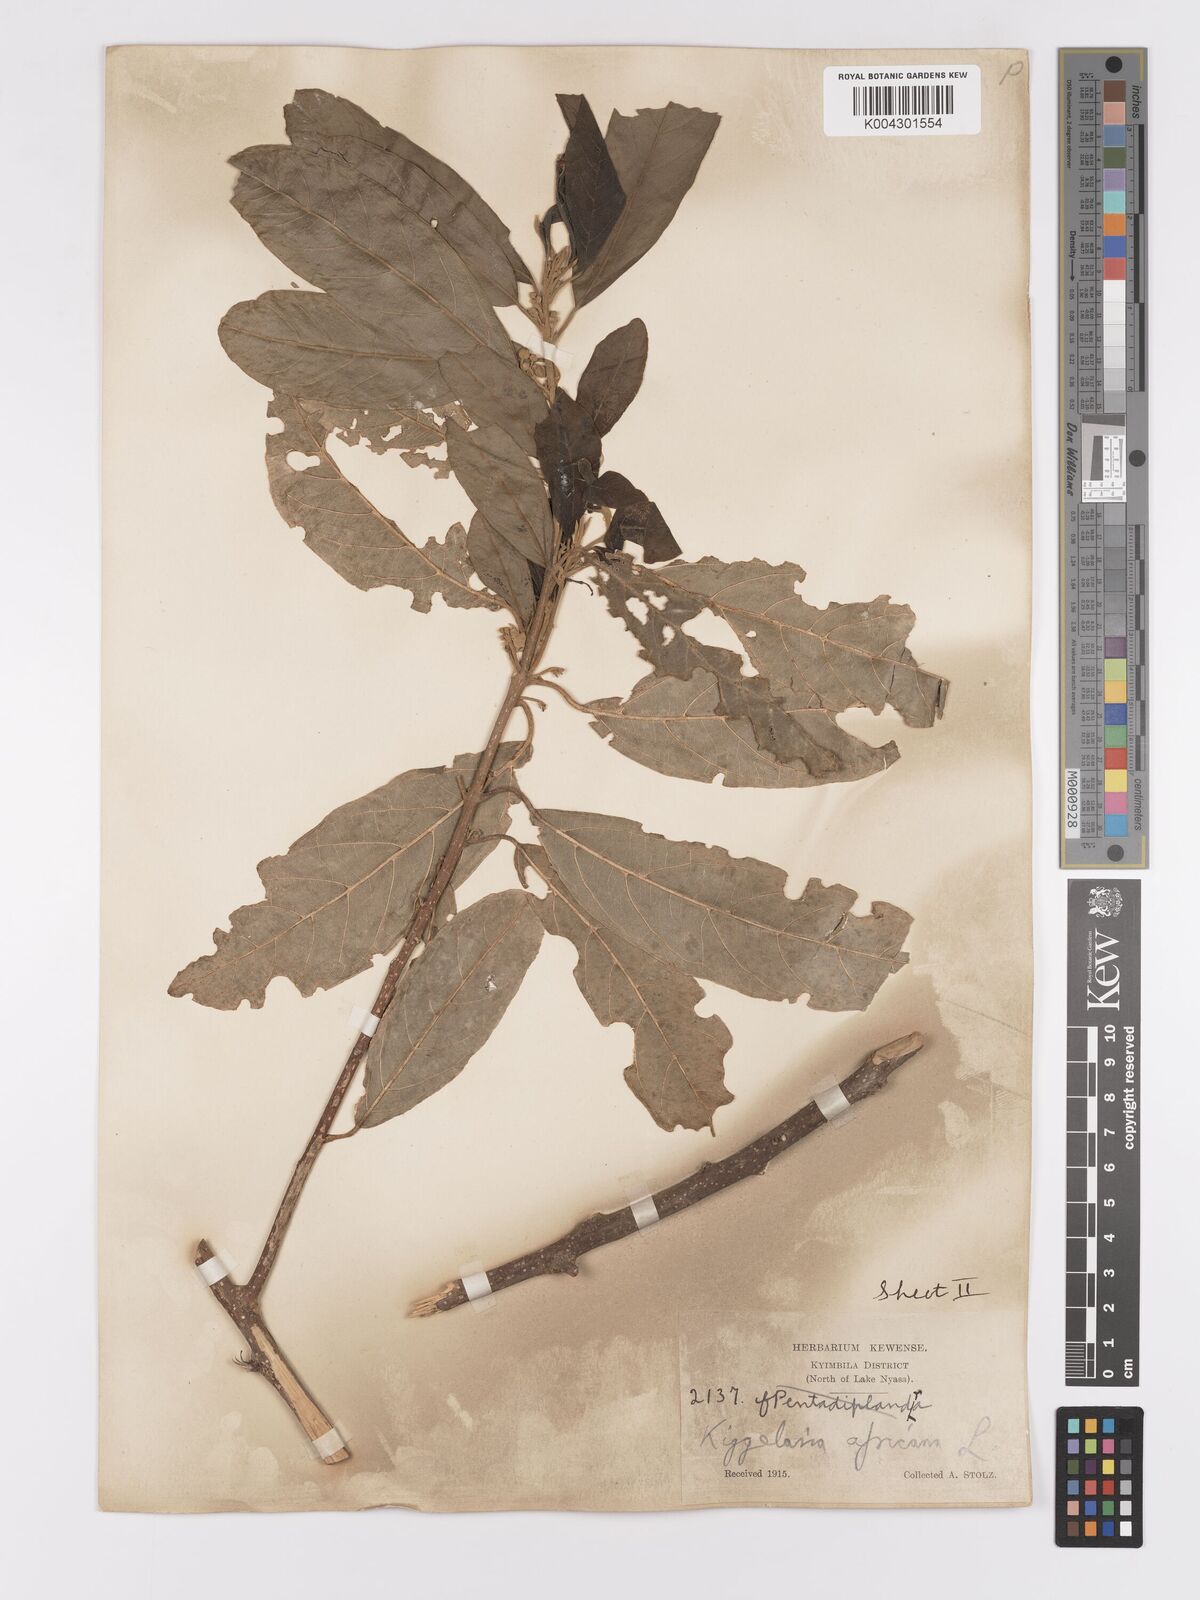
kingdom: Plantae
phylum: Tracheophyta
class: Magnoliopsida
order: Malpighiales
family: Achariaceae
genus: Kiggelaria
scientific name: Kiggelaria africana
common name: Wild peach
